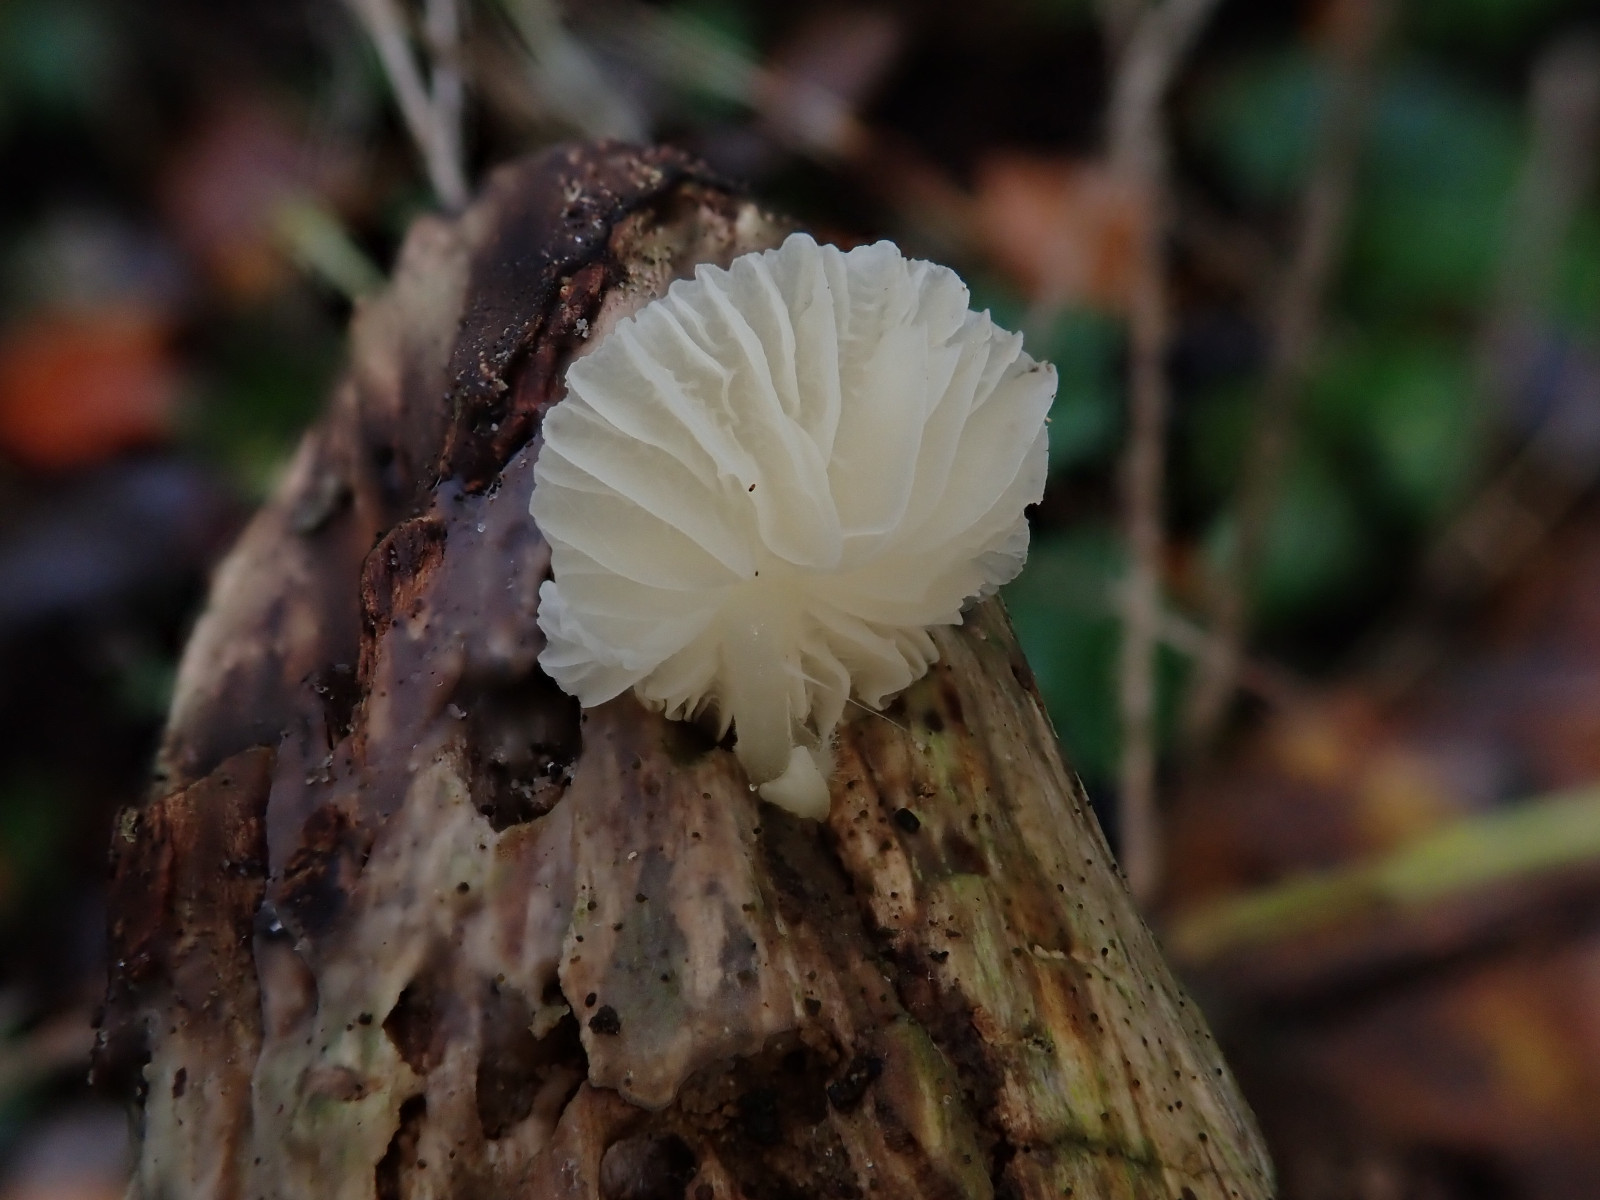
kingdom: Fungi
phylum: Basidiomycota
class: Agaricomycetes
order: Agaricales
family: Mycenaceae
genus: Mycena
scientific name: Mycena galericulata
